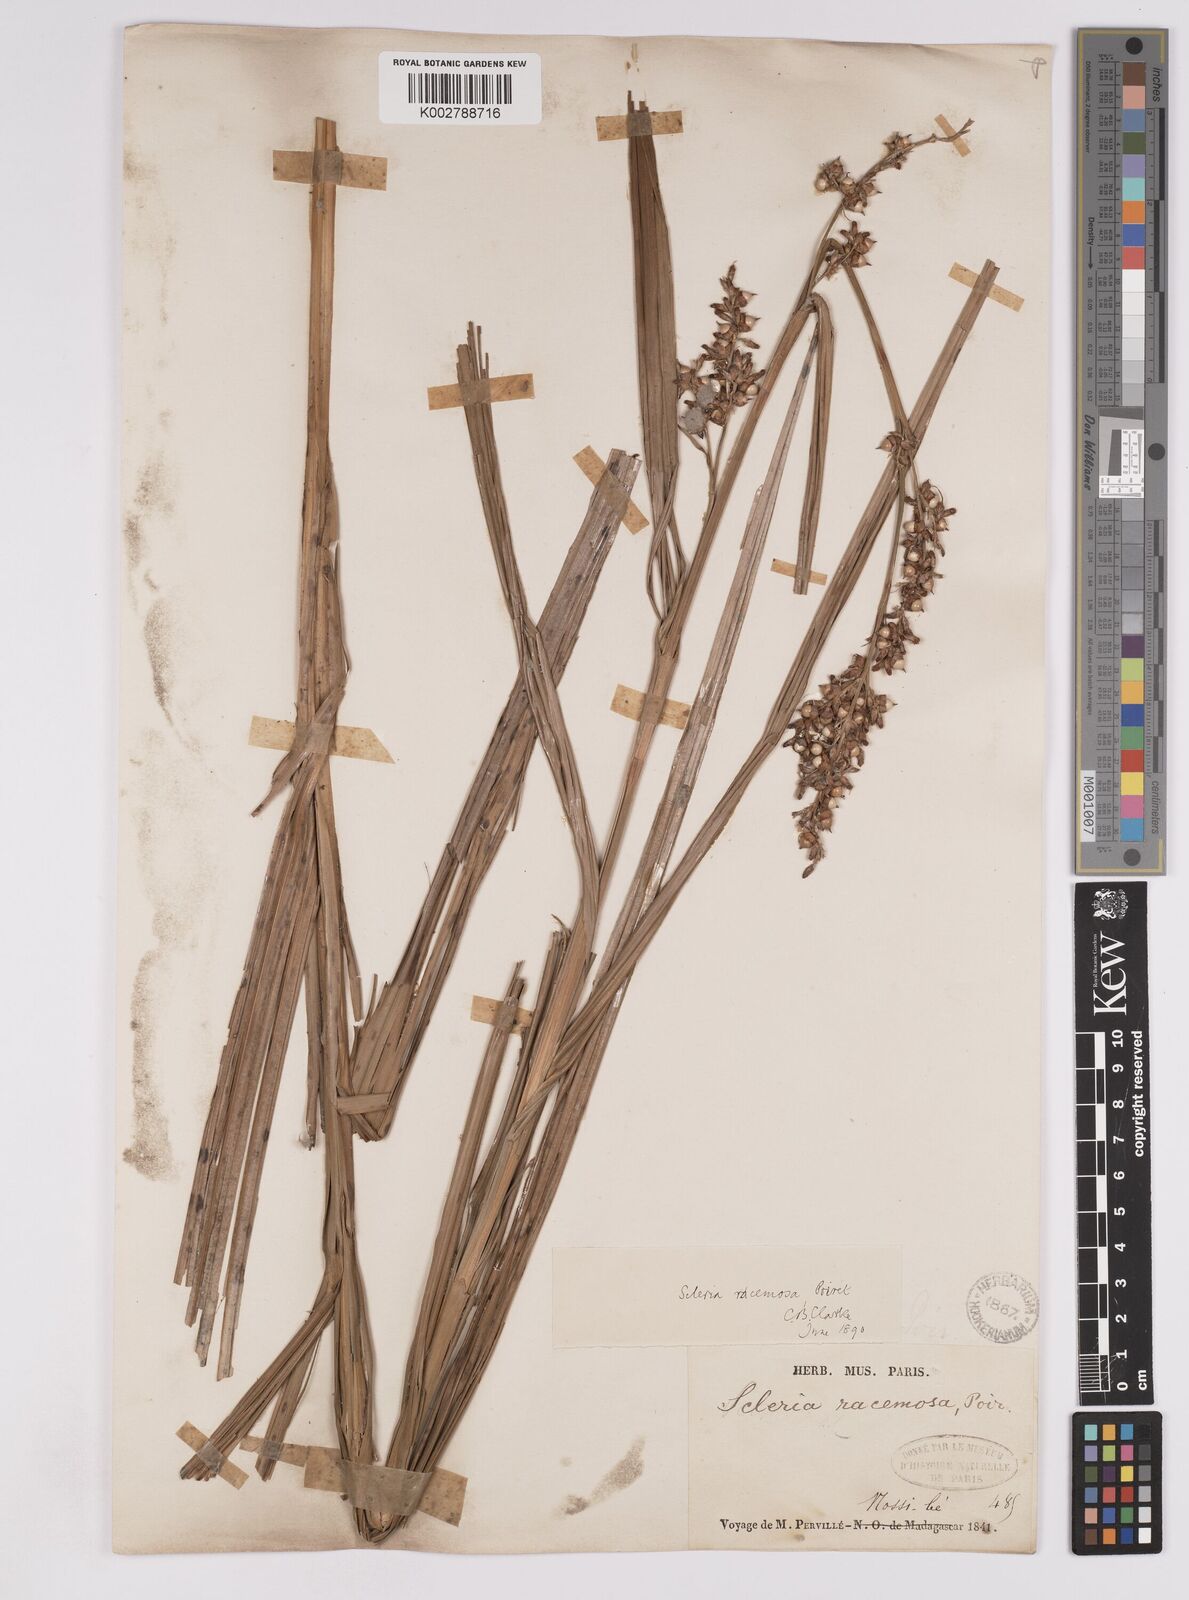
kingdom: Plantae
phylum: Tracheophyta
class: Liliopsida
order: Poales
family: Cyperaceae
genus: Scleria
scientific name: Scleria racemosa
